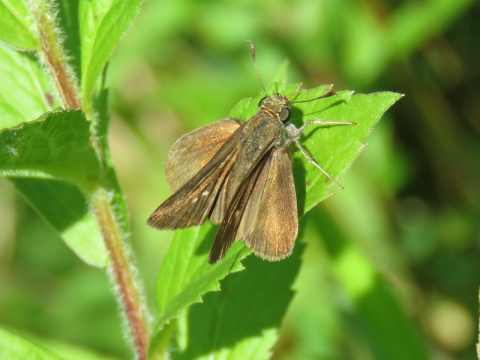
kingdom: Animalia
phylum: Arthropoda
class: Insecta
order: Lepidoptera
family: Hesperiidae
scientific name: Hesperiidae
